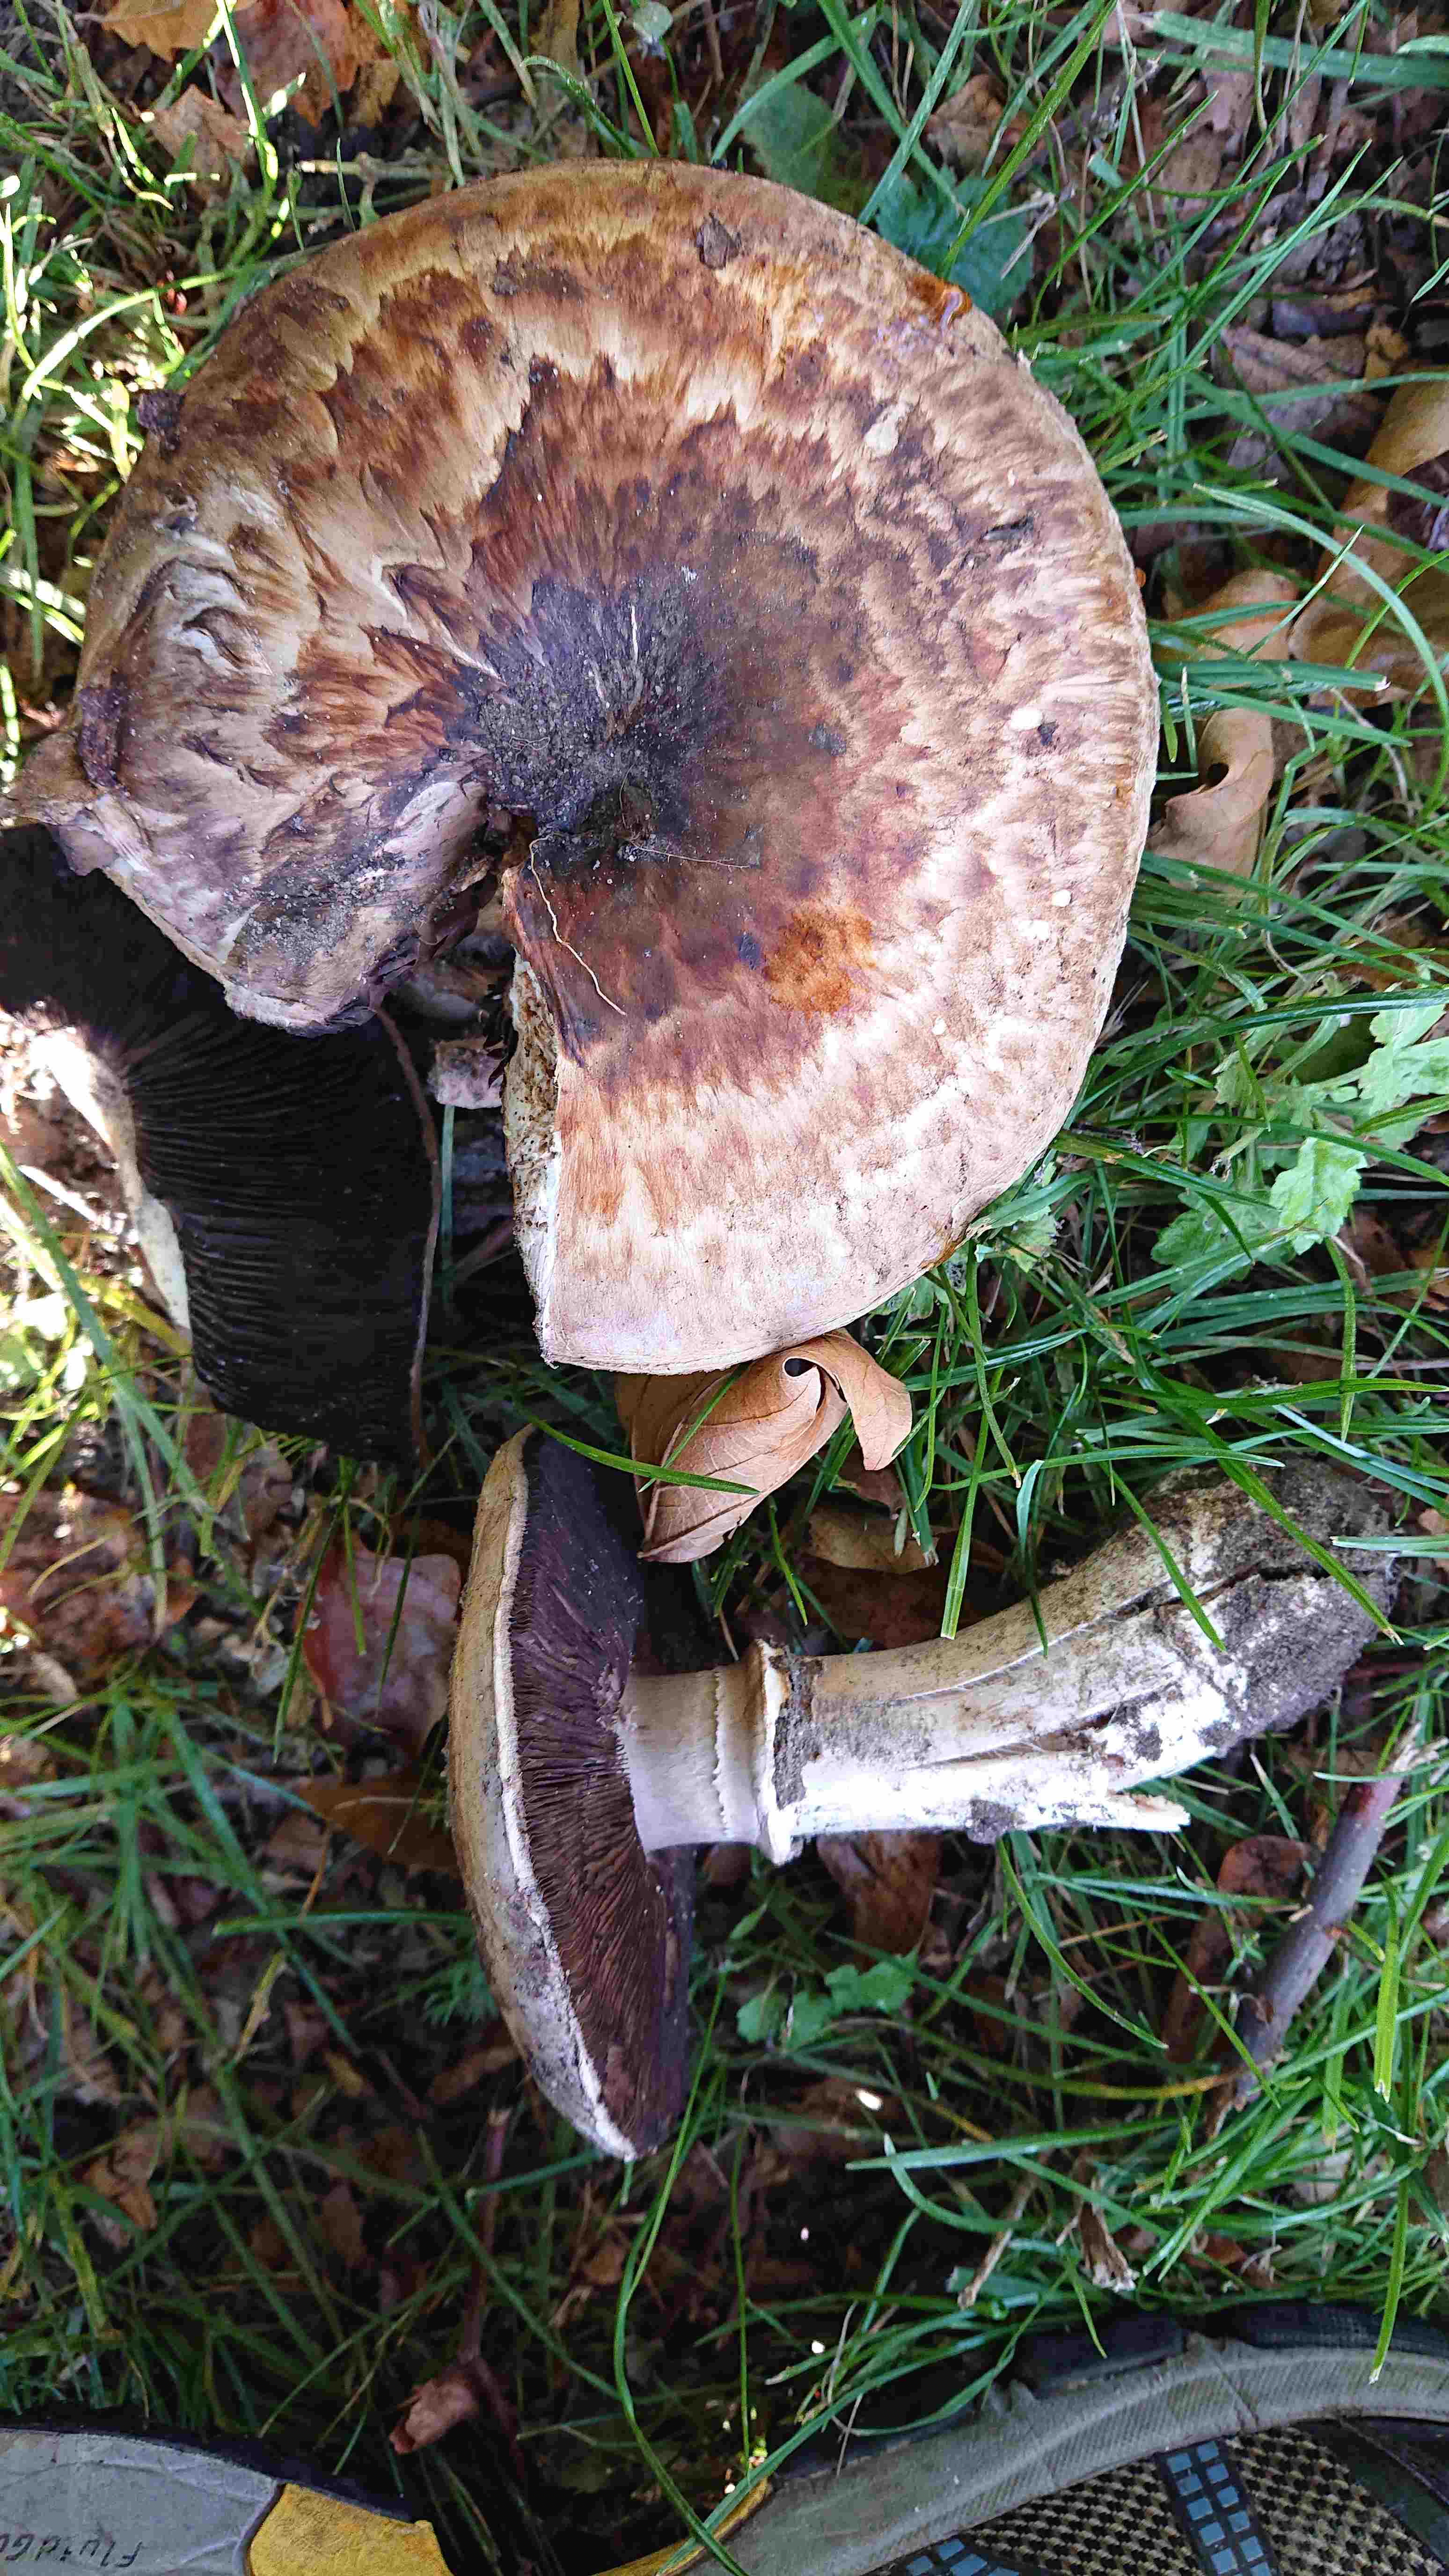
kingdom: Fungi
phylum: Basidiomycota
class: Agaricomycetes
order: Agaricales
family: Agaricaceae
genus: Agaricus
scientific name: Agaricus subperonatus
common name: knippe-champignon
